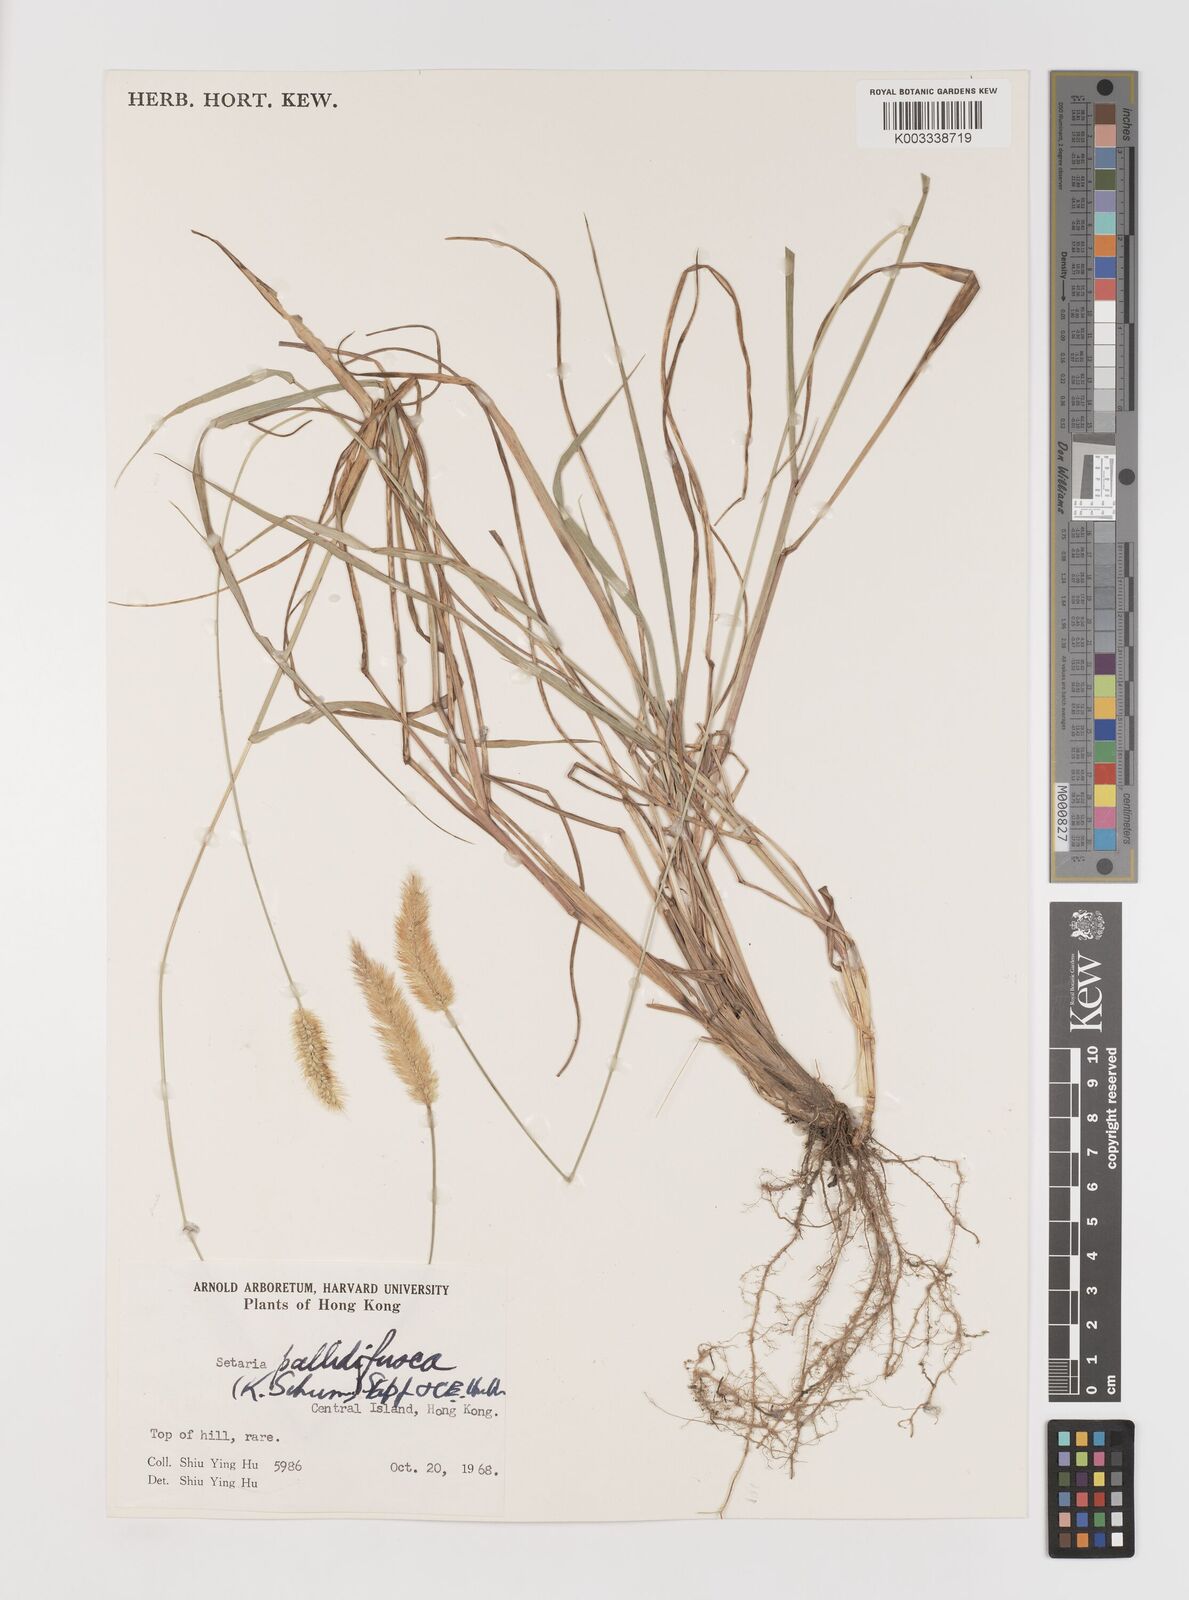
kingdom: Plantae
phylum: Tracheophyta
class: Liliopsida
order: Poales
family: Poaceae
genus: Setaria
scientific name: Setaria parviflora
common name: Knotroot bristle-grass
